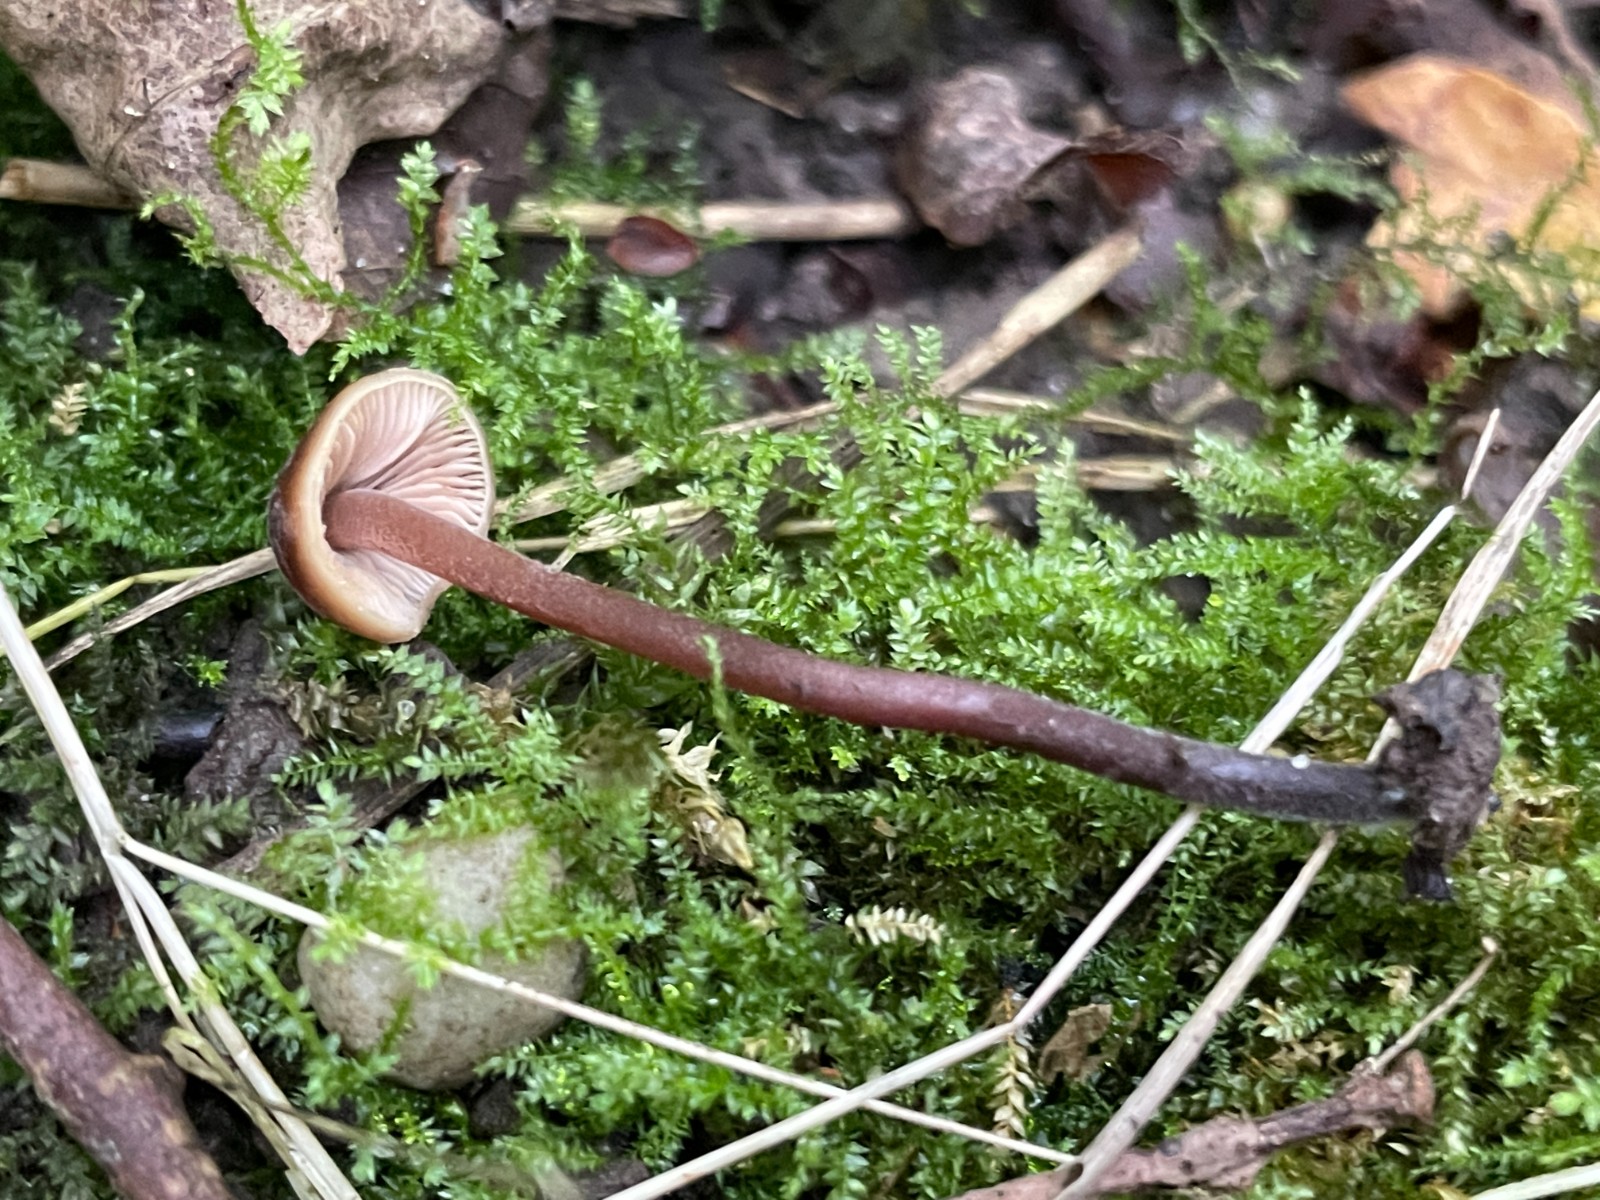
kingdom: Fungi
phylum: Basidiomycota
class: Agaricomycetes
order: Agaricales
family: Macrocystidiaceae
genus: Macrocystidia
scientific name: Macrocystidia cucumis
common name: agurkehat
